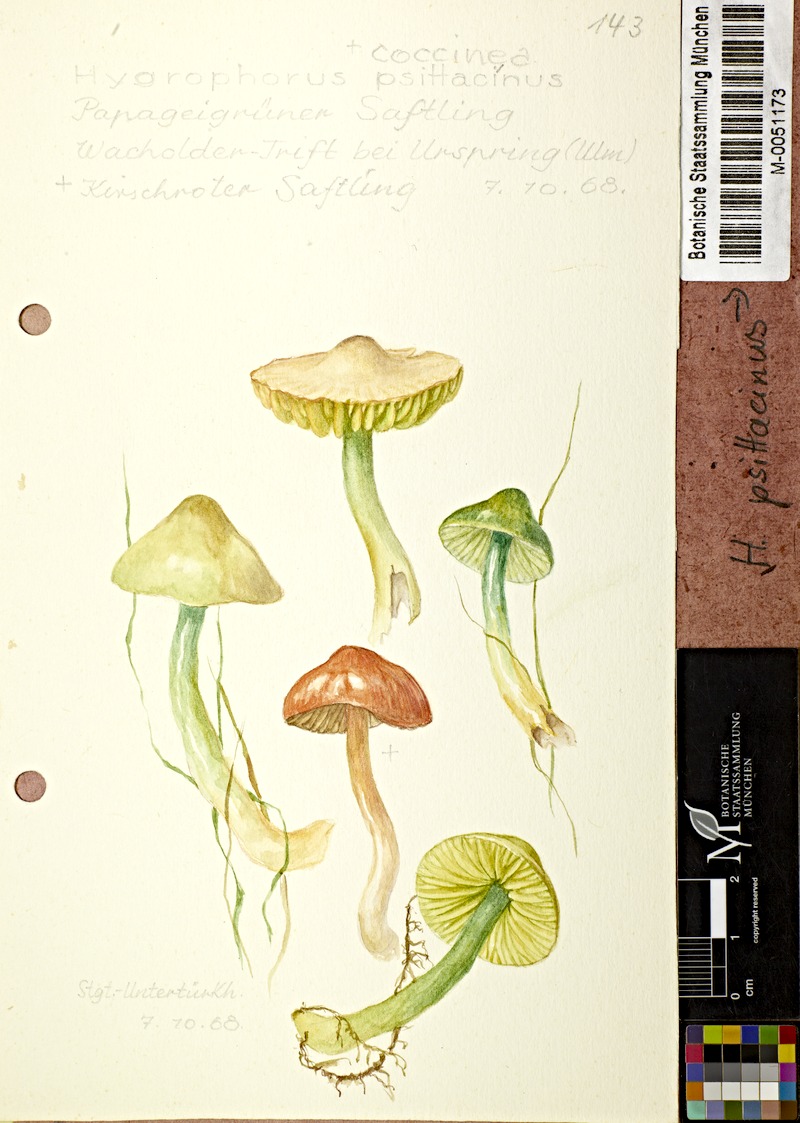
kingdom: Fungi
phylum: Basidiomycota
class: Agaricomycetes
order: Agaricales
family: Hygrophoraceae
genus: Gliophorus
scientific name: Gliophorus psittacinus
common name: Parrot wax-cap
